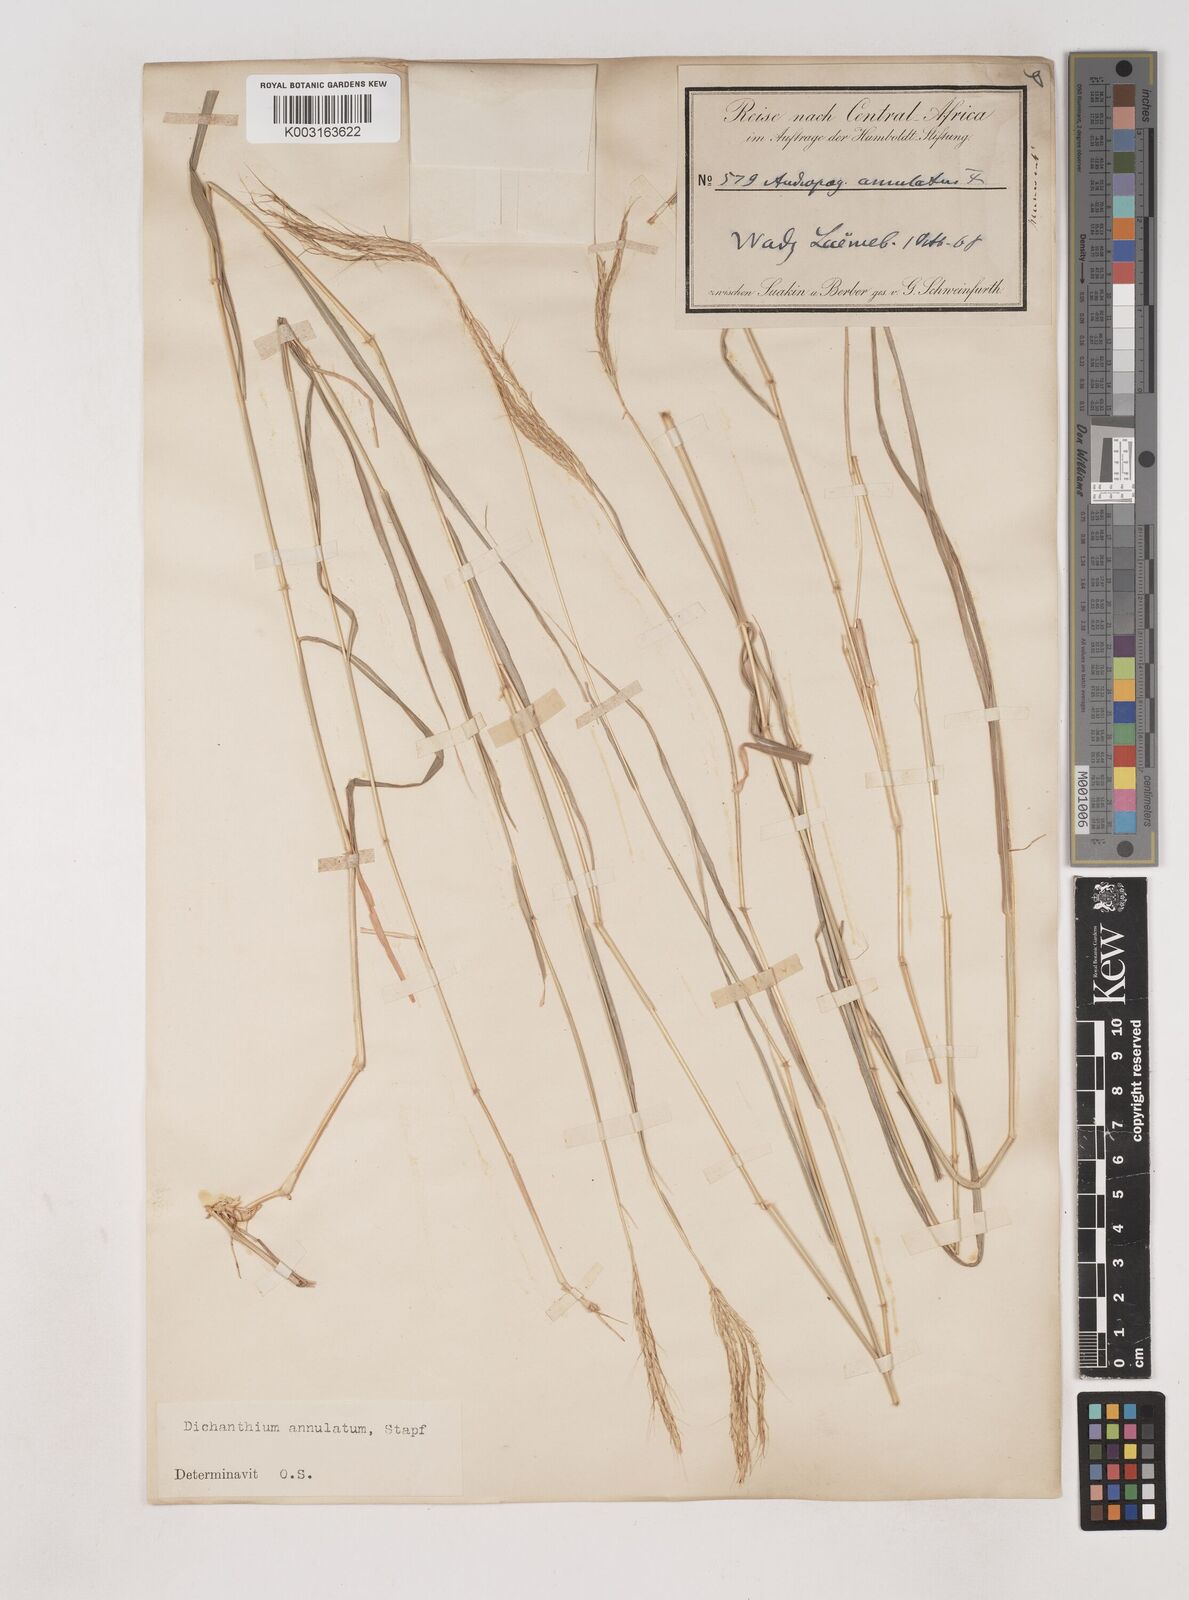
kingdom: Plantae
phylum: Tracheophyta
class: Liliopsida
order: Poales
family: Poaceae
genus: Dichanthium
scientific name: Dichanthium annulatum
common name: Kleberg's bluestem
